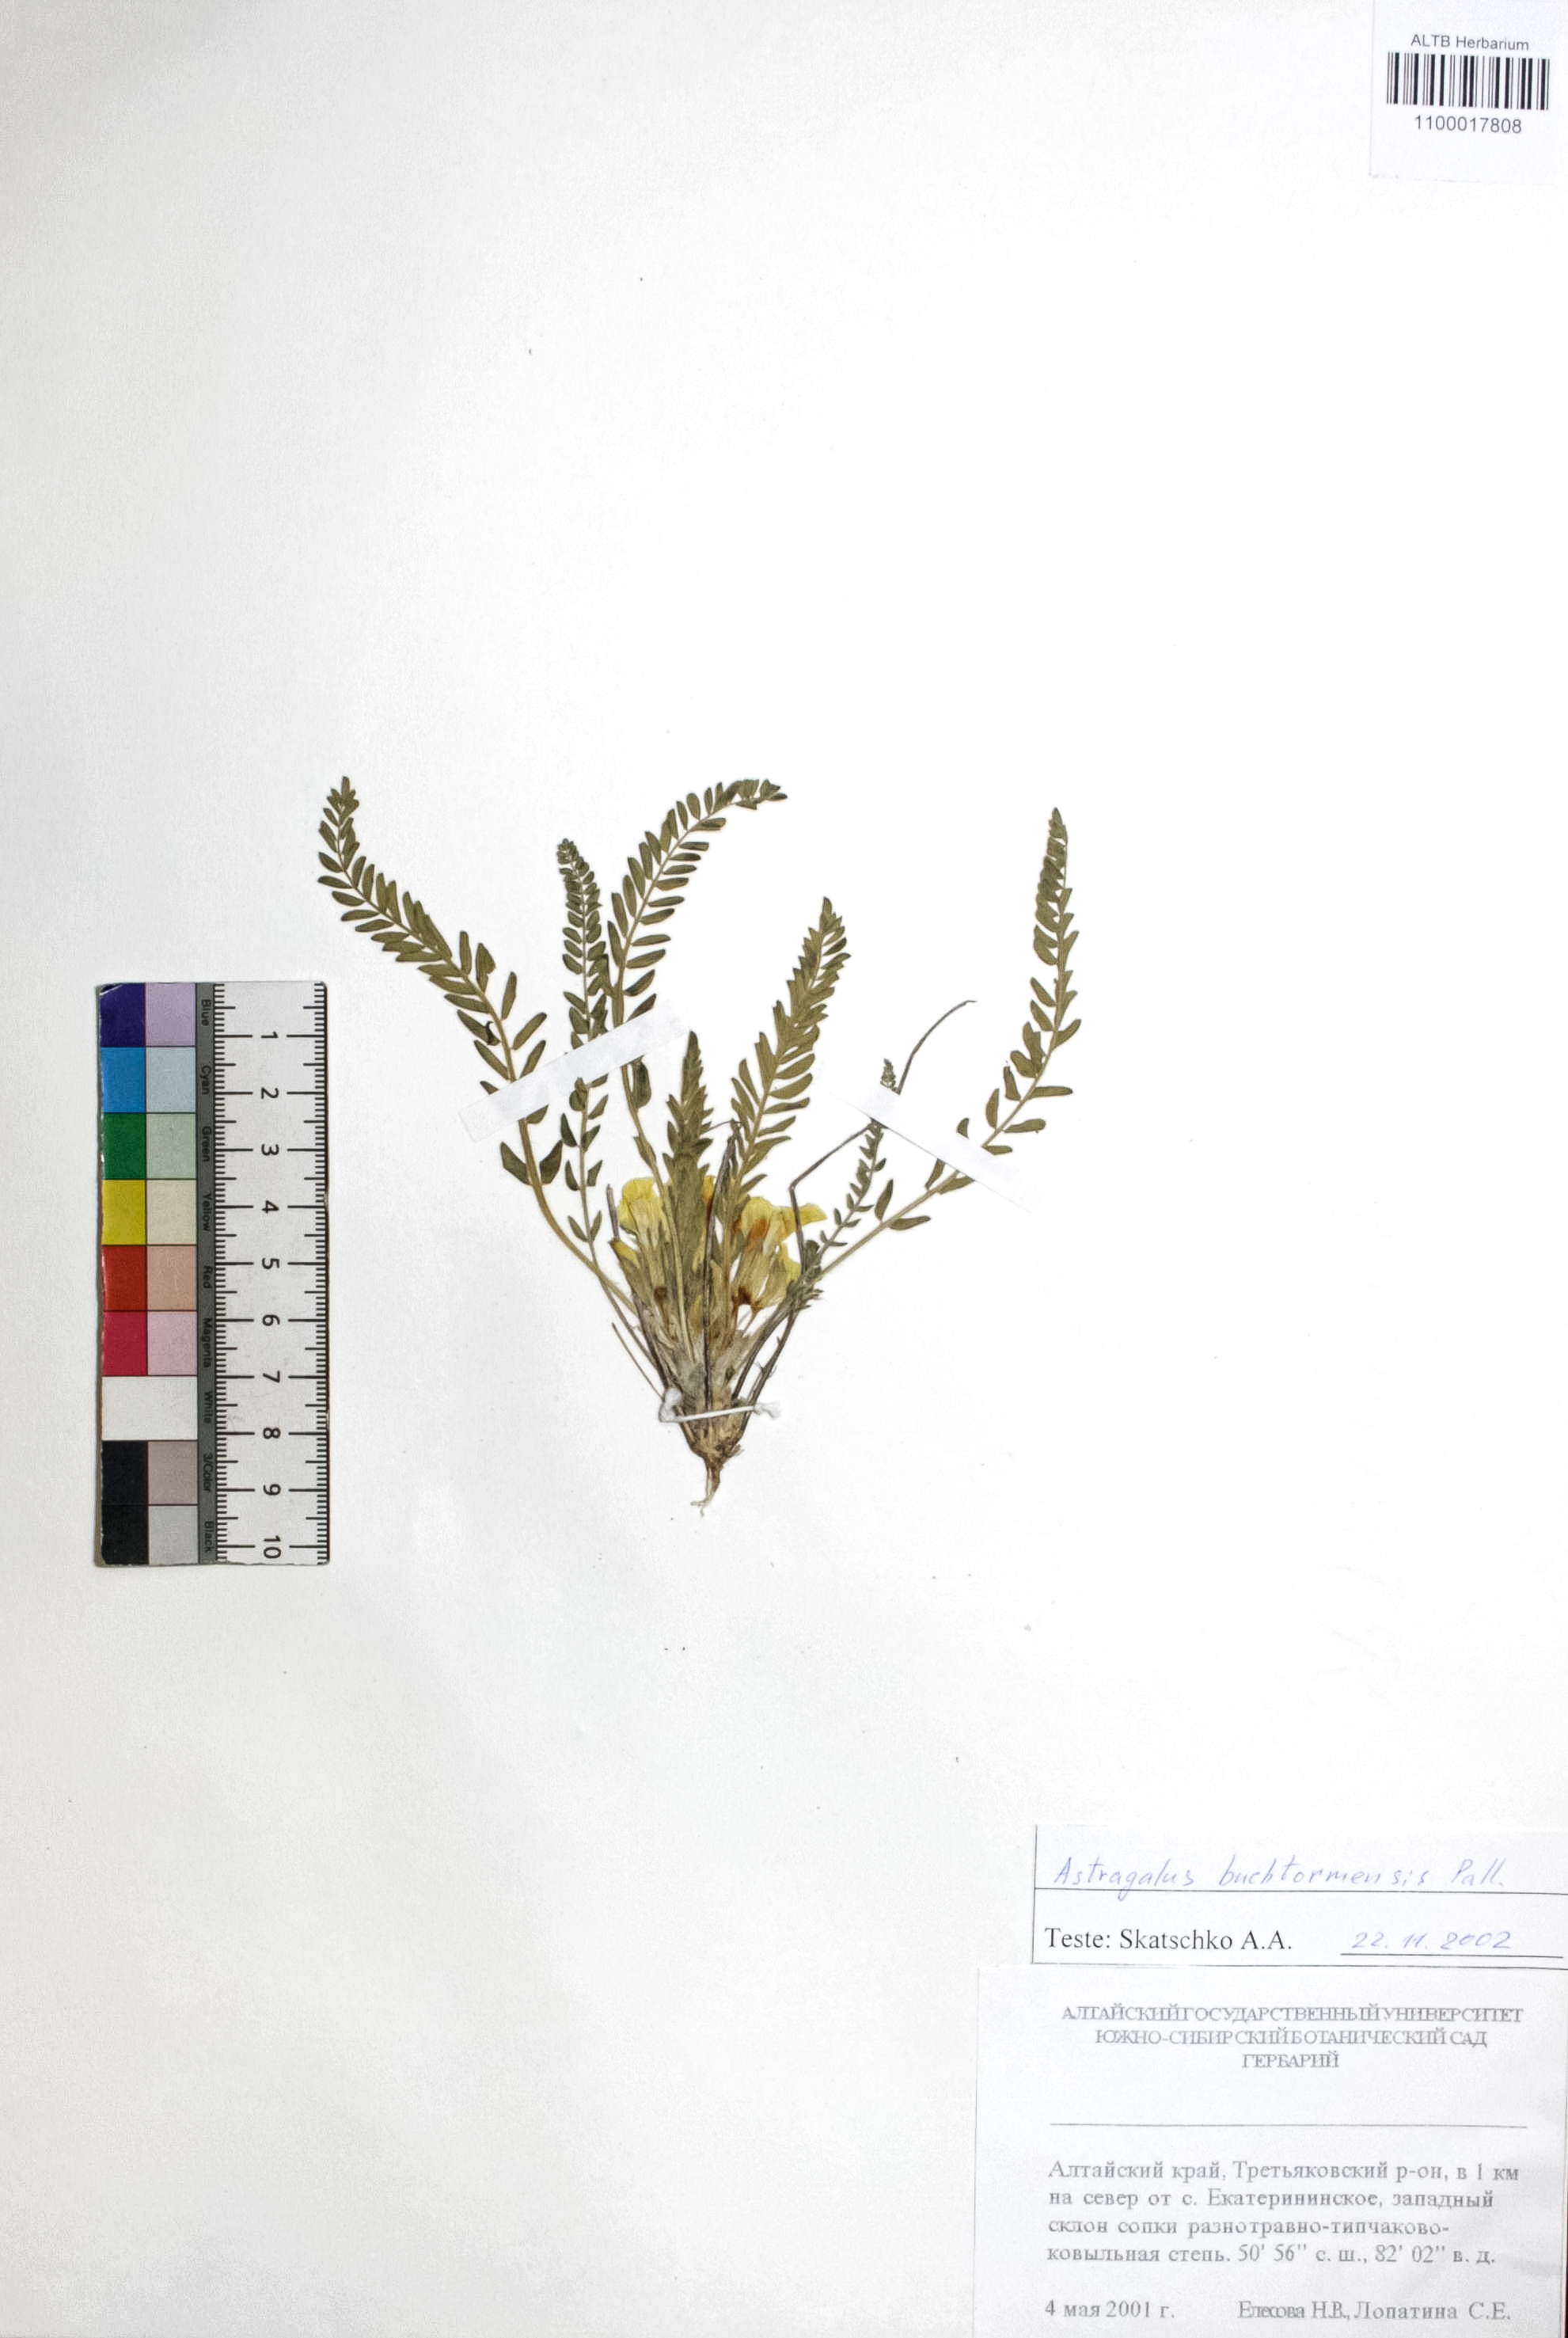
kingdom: Plantae
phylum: Tracheophyta
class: Magnoliopsida
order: Fabales
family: Fabaceae
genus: Astragalus
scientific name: Astragalus buchtormensis
